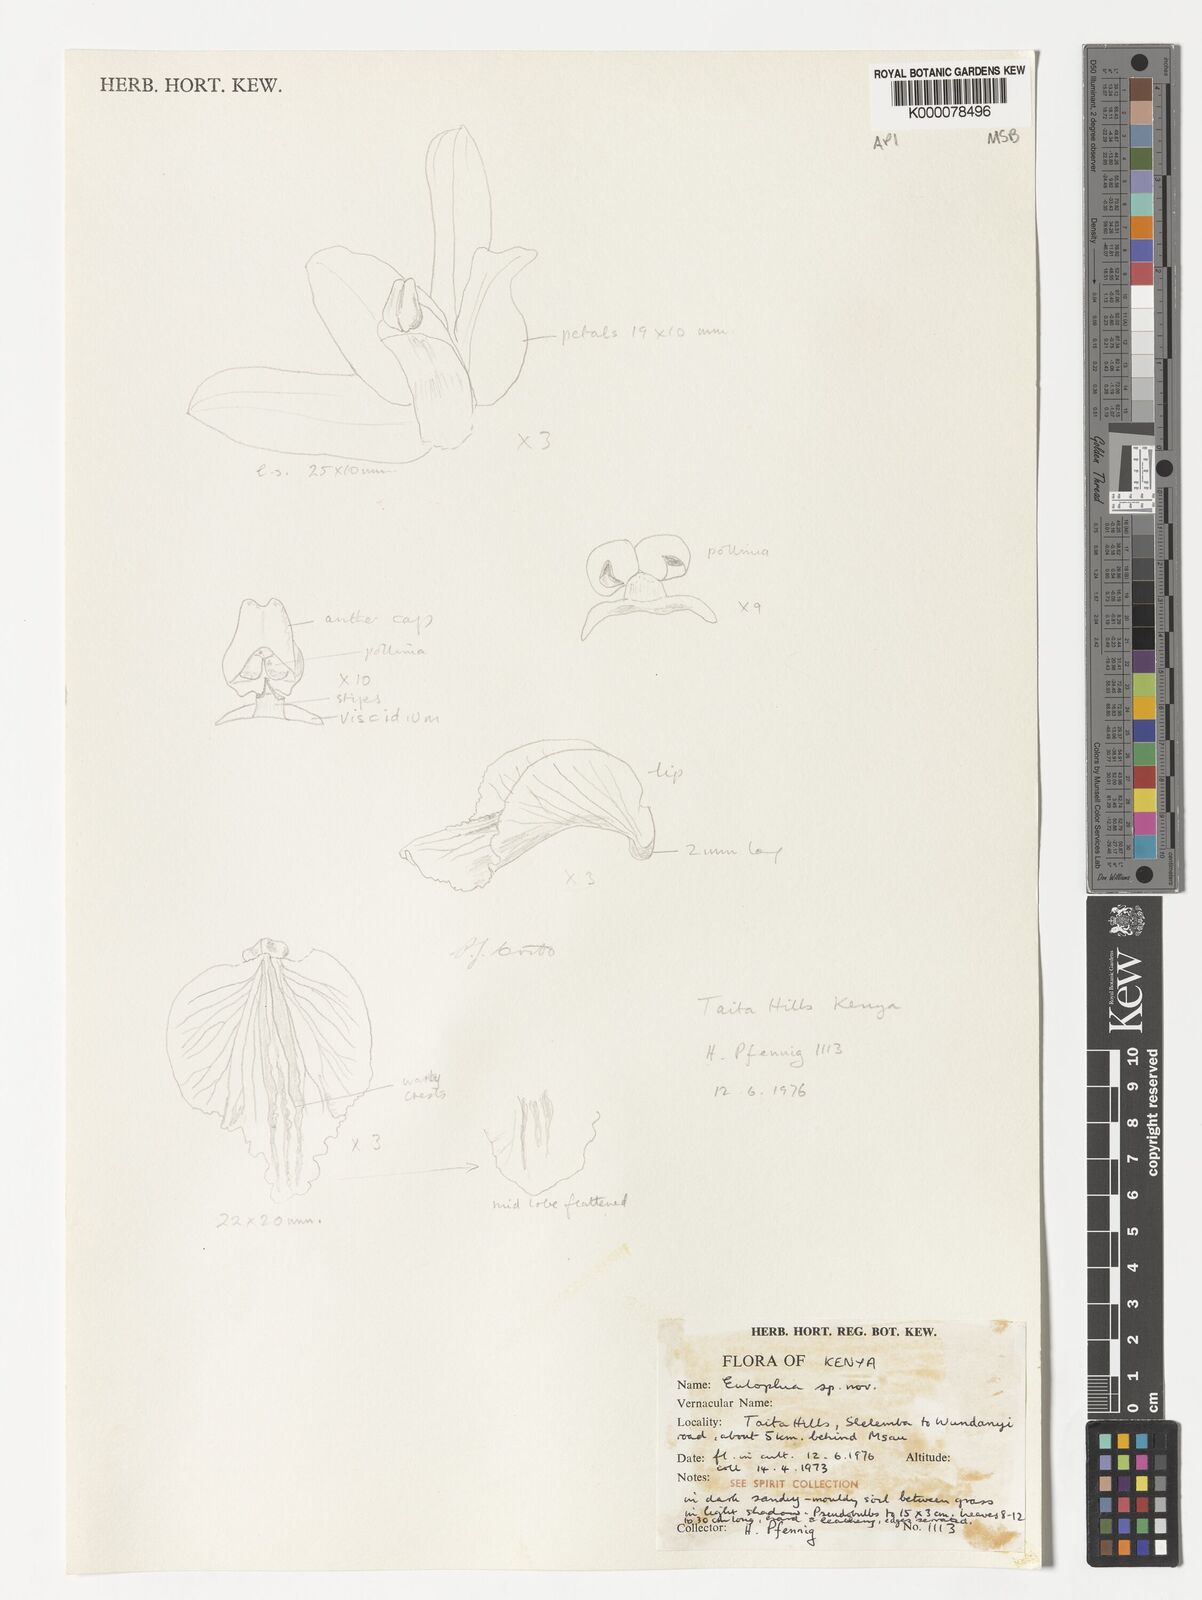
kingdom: Plantae
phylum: Tracheophyta
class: Liliopsida
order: Asparagales
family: Orchidaceae
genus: Eulophia
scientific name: Eulophia taitensis
